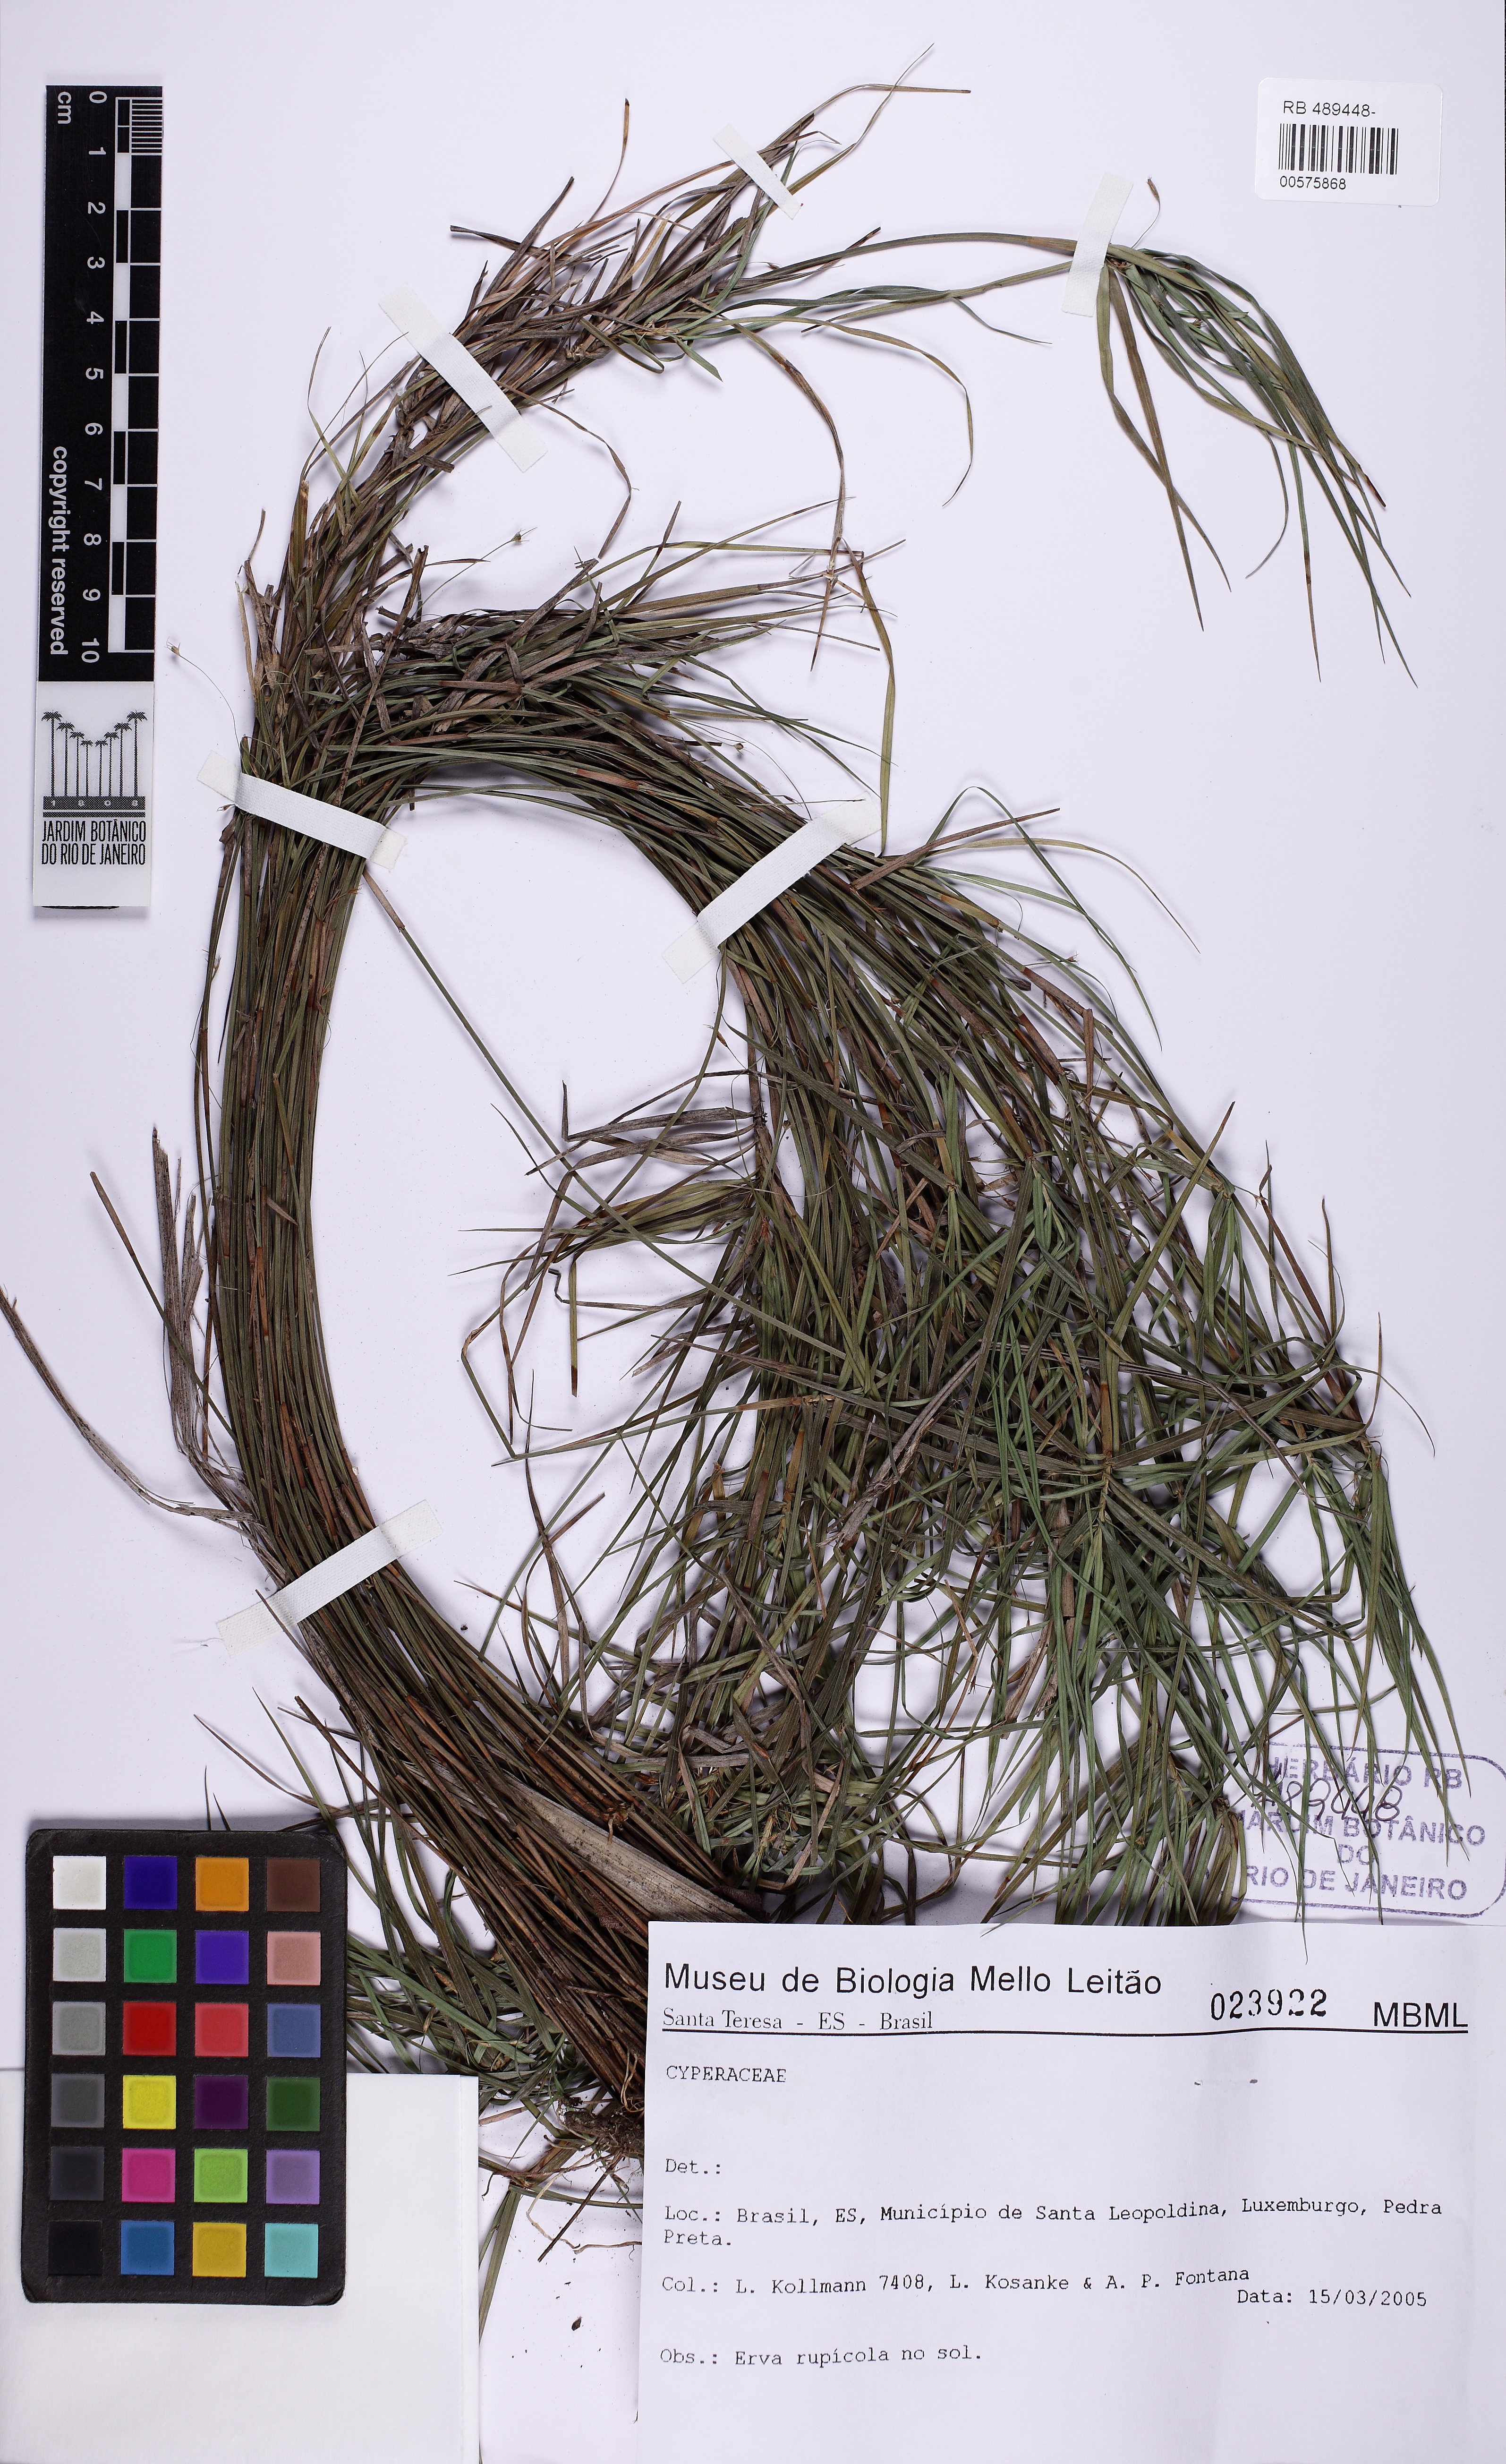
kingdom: Plantae
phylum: Tracheophyta
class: Liliopsida
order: Poales
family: Cyperaceae
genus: Cryptangium
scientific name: Cryptangium
